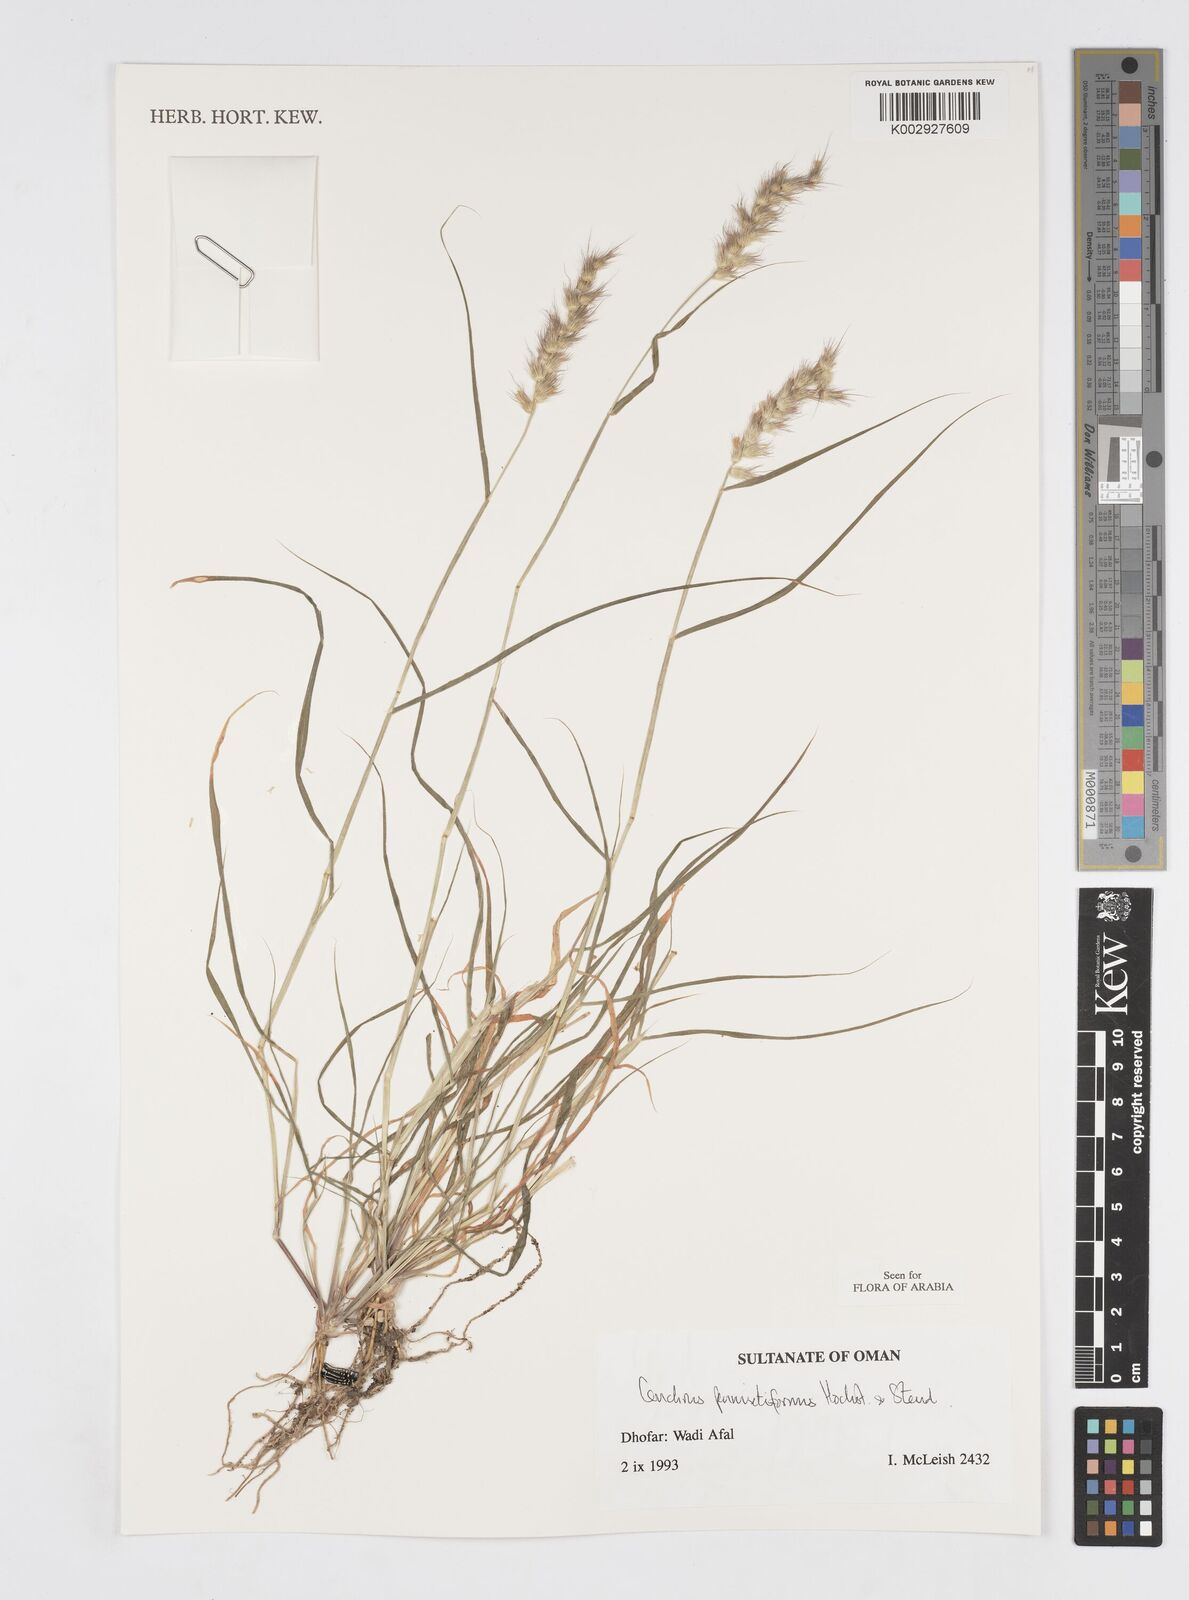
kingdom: Plantae
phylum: Tracheophyta
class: Liliopsida
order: Poales
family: Poaceae
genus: Cenchrus
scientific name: Cenchrus pennisetiformis
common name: Cloncurry
